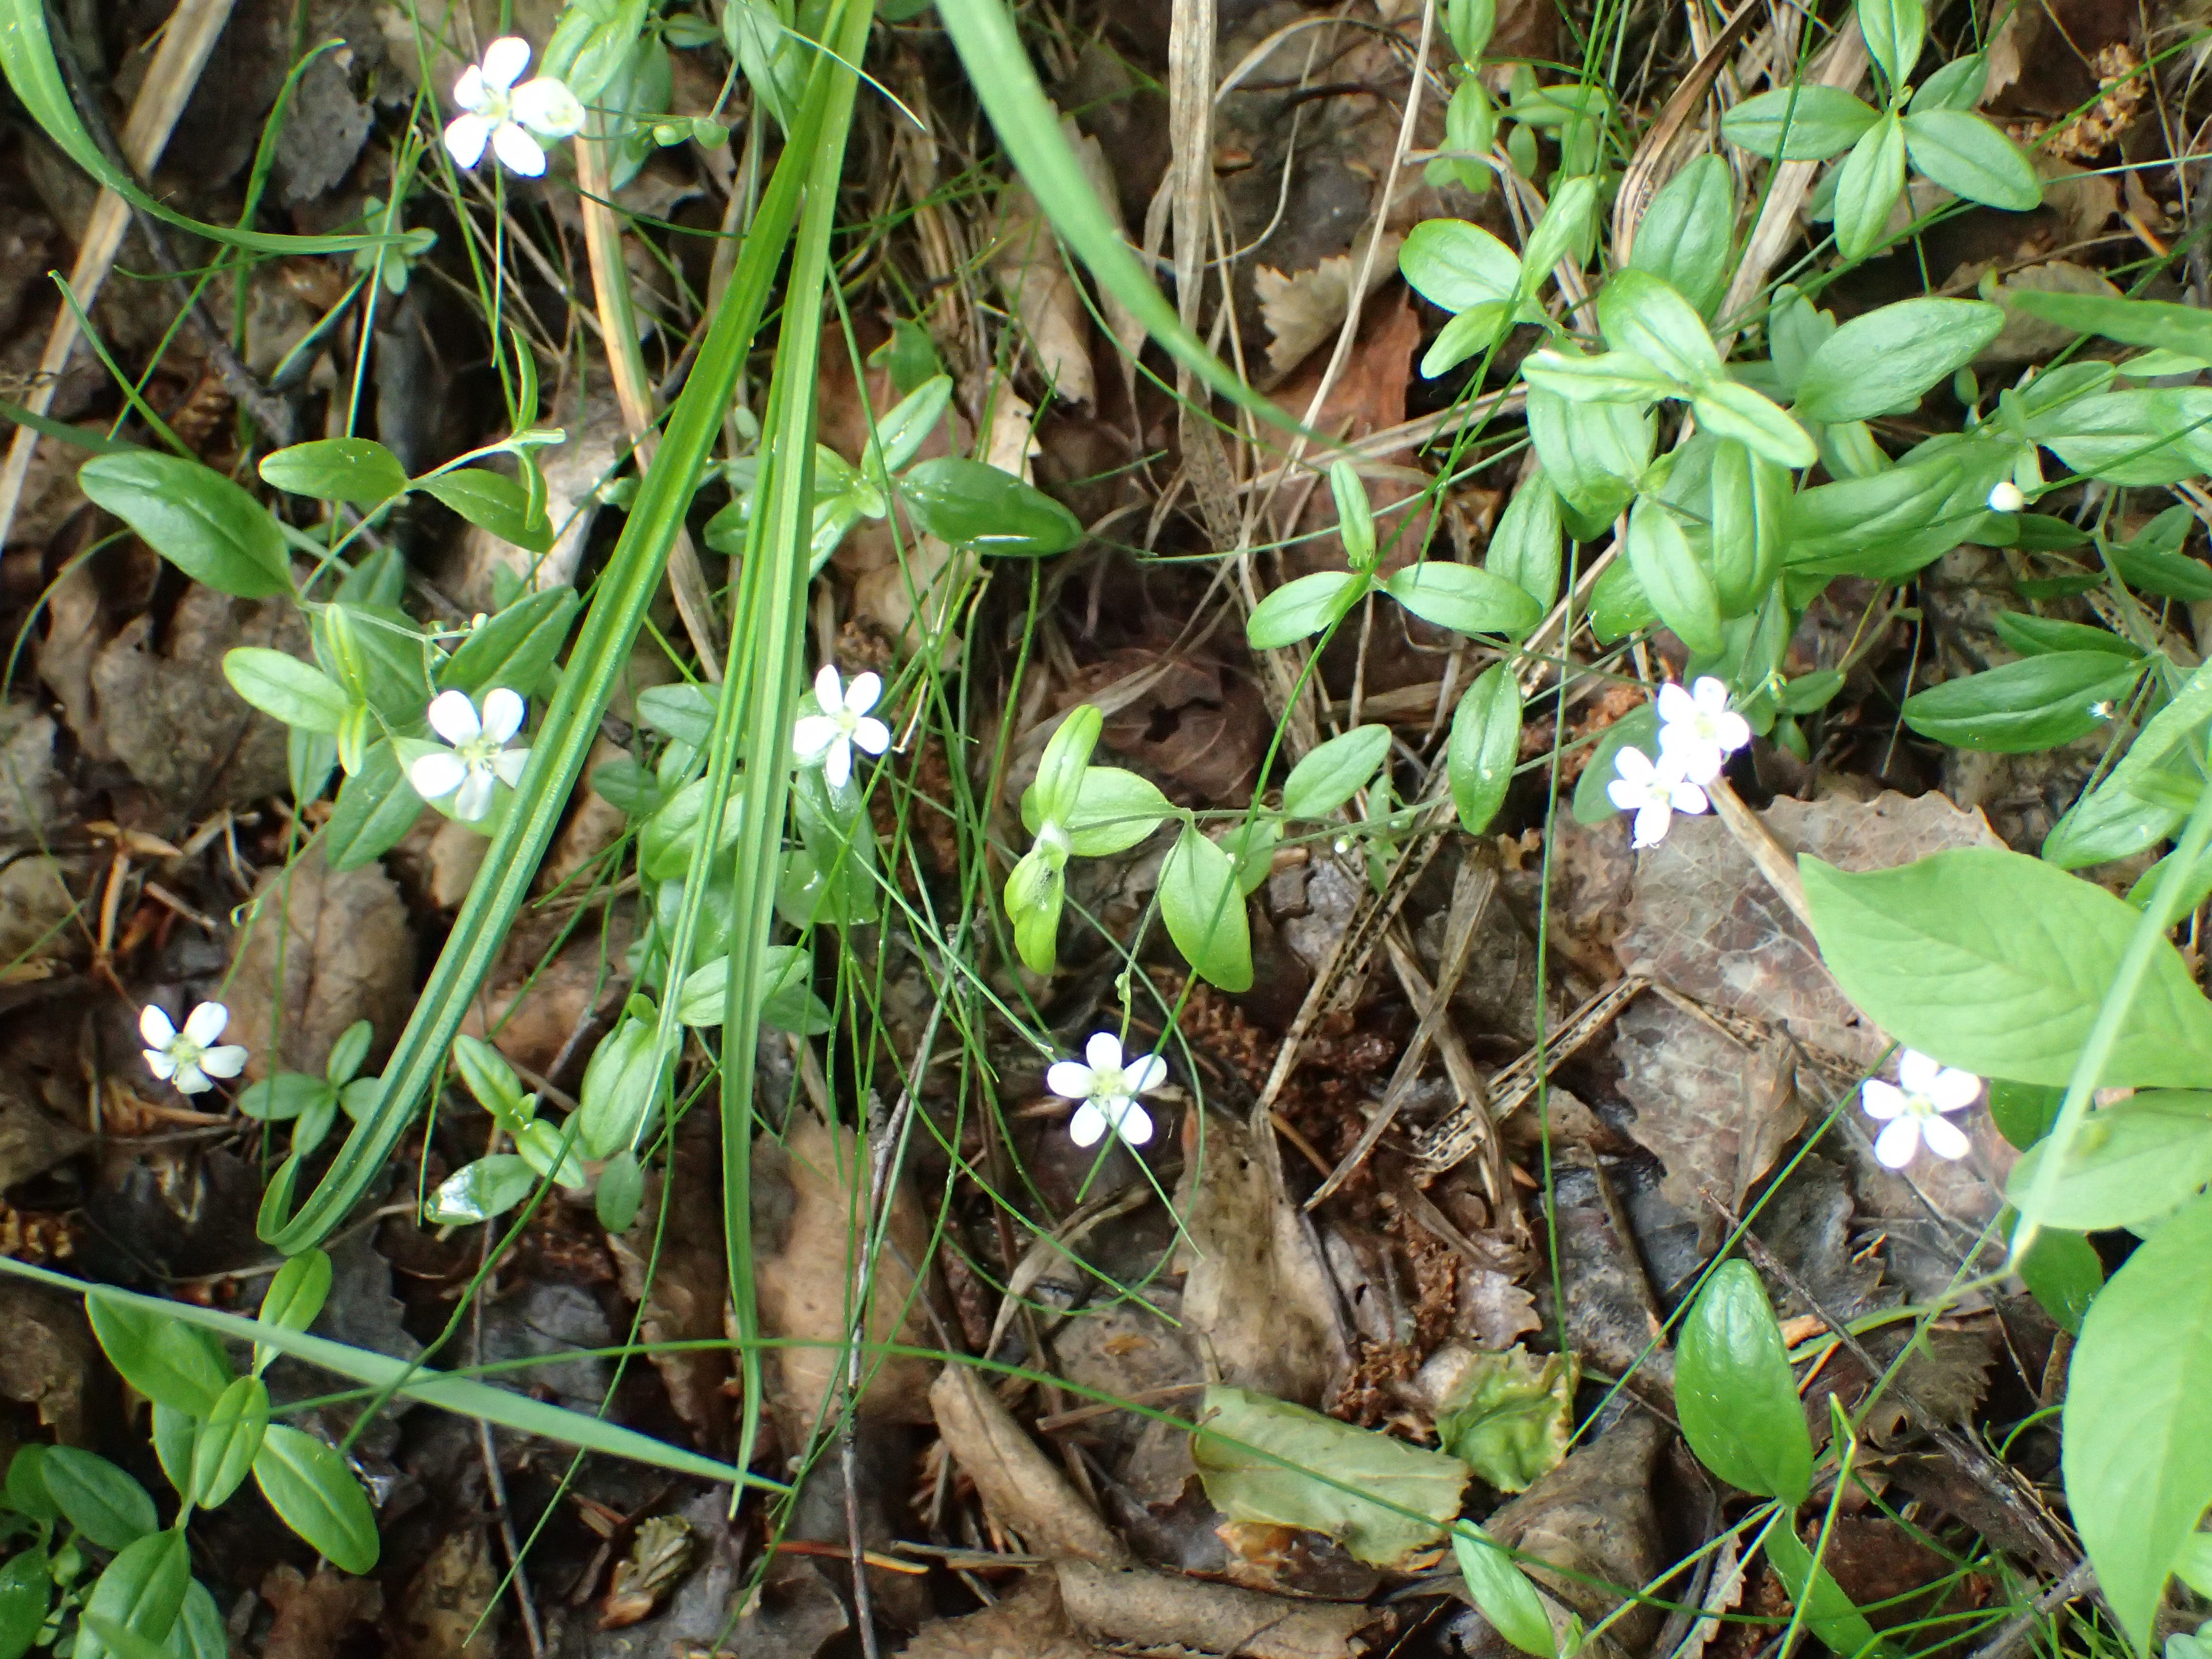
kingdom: Plantae
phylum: Tracheophyta
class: Magnoliopsida
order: Caryophyllales
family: Caryophyllaceae
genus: Moehringia
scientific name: Moehringia lateriflora
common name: Blunt-leaved sandwort
